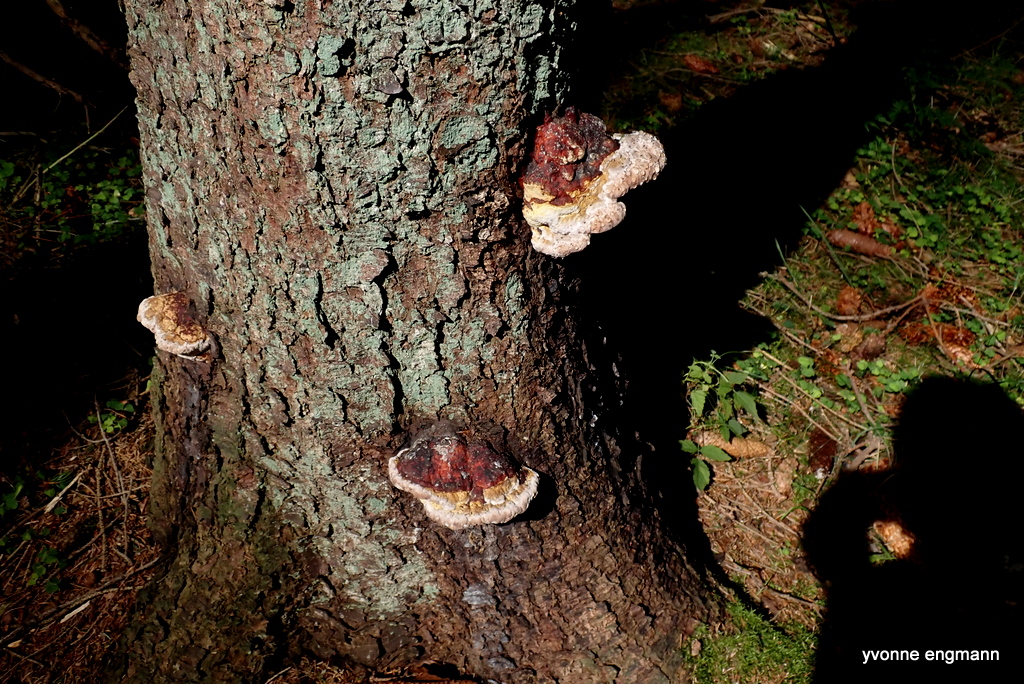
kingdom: Fungi
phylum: Basidiomycota
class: Agaricomycetes
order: Polyporales
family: Fomitopsidaceae
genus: Fomitopsis
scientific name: Fomitopsis pinicola
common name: randbæltet hovporesvamp
